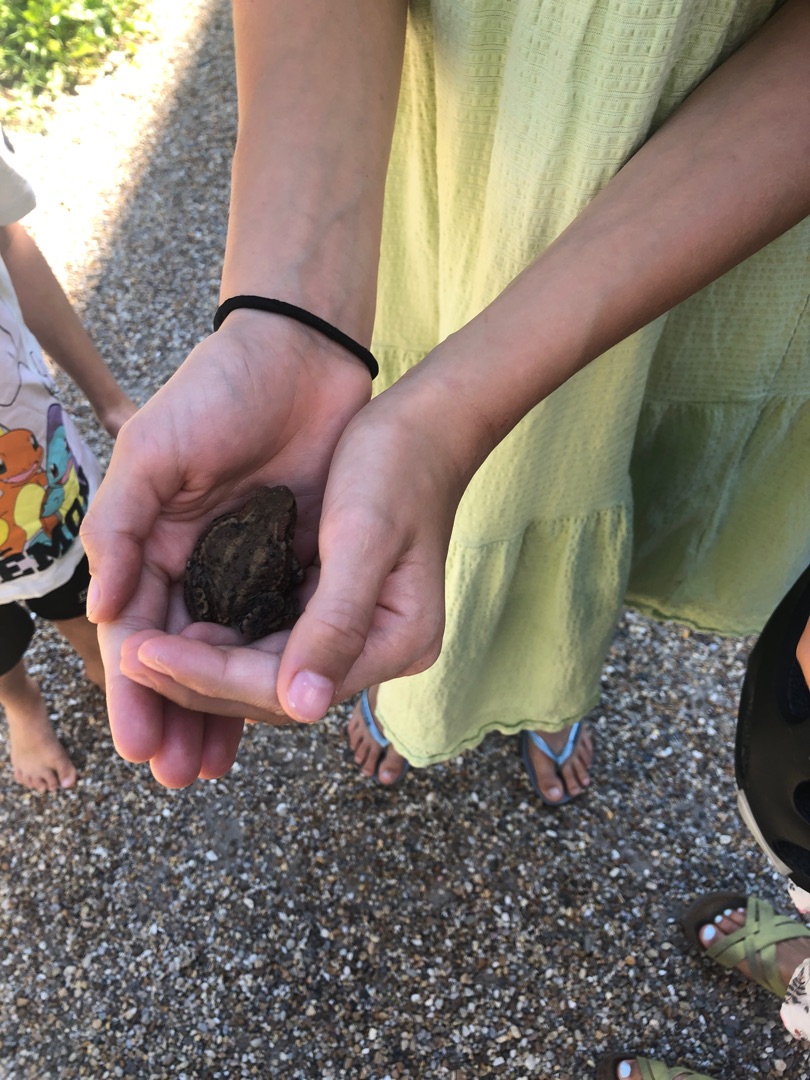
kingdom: Animalia
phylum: Chordata
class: Amphibia
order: Anura
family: Bufonidae
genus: Bufo
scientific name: Bufo bufo
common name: Skrubtudse
